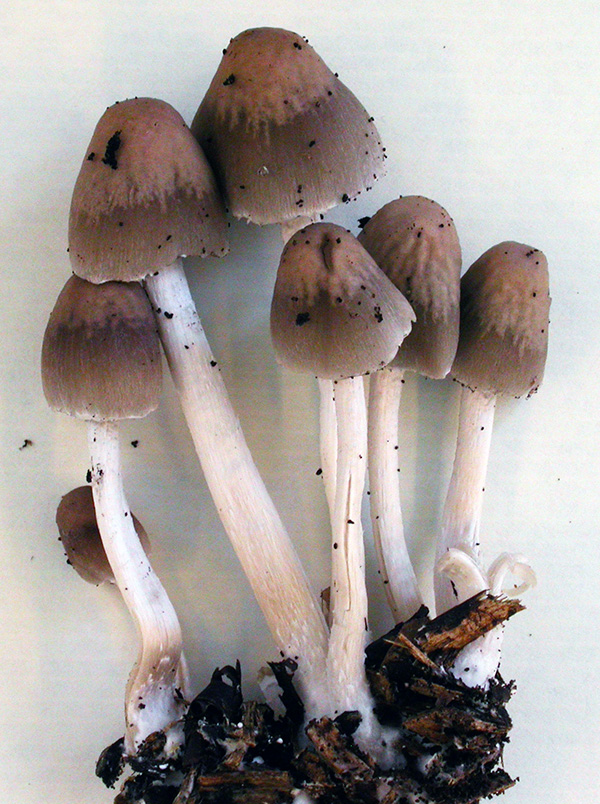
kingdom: Fungi
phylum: Basidiomycota
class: Agaricomycetes
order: Agaricales
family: Psathyrellaceae
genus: Coprinopsis
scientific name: Coprinopsis marcescibilis
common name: ruderat-blækhat
